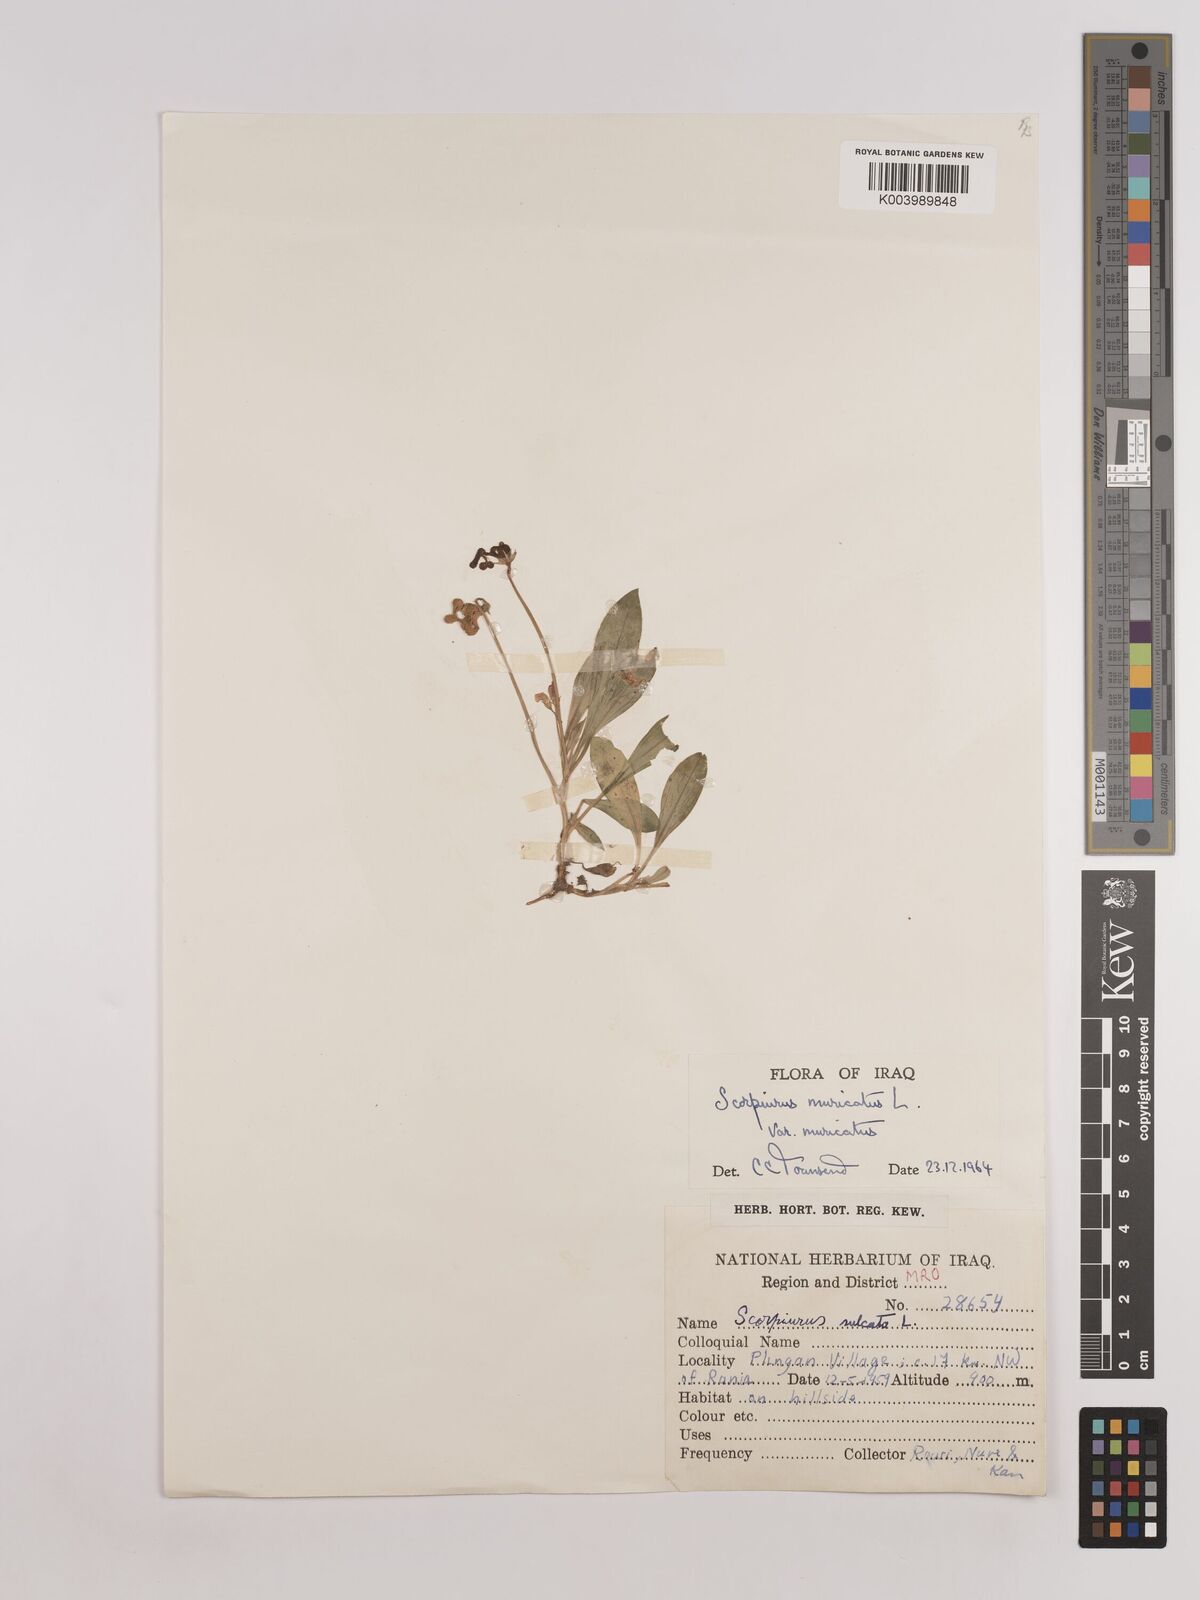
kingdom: Plantae
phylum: Tracheophyta
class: Magnoliopsida
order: Fabales
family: Fabaceae
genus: Scorpiurus
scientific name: Scorpiurus muricatus
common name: Caterpillar-plant
